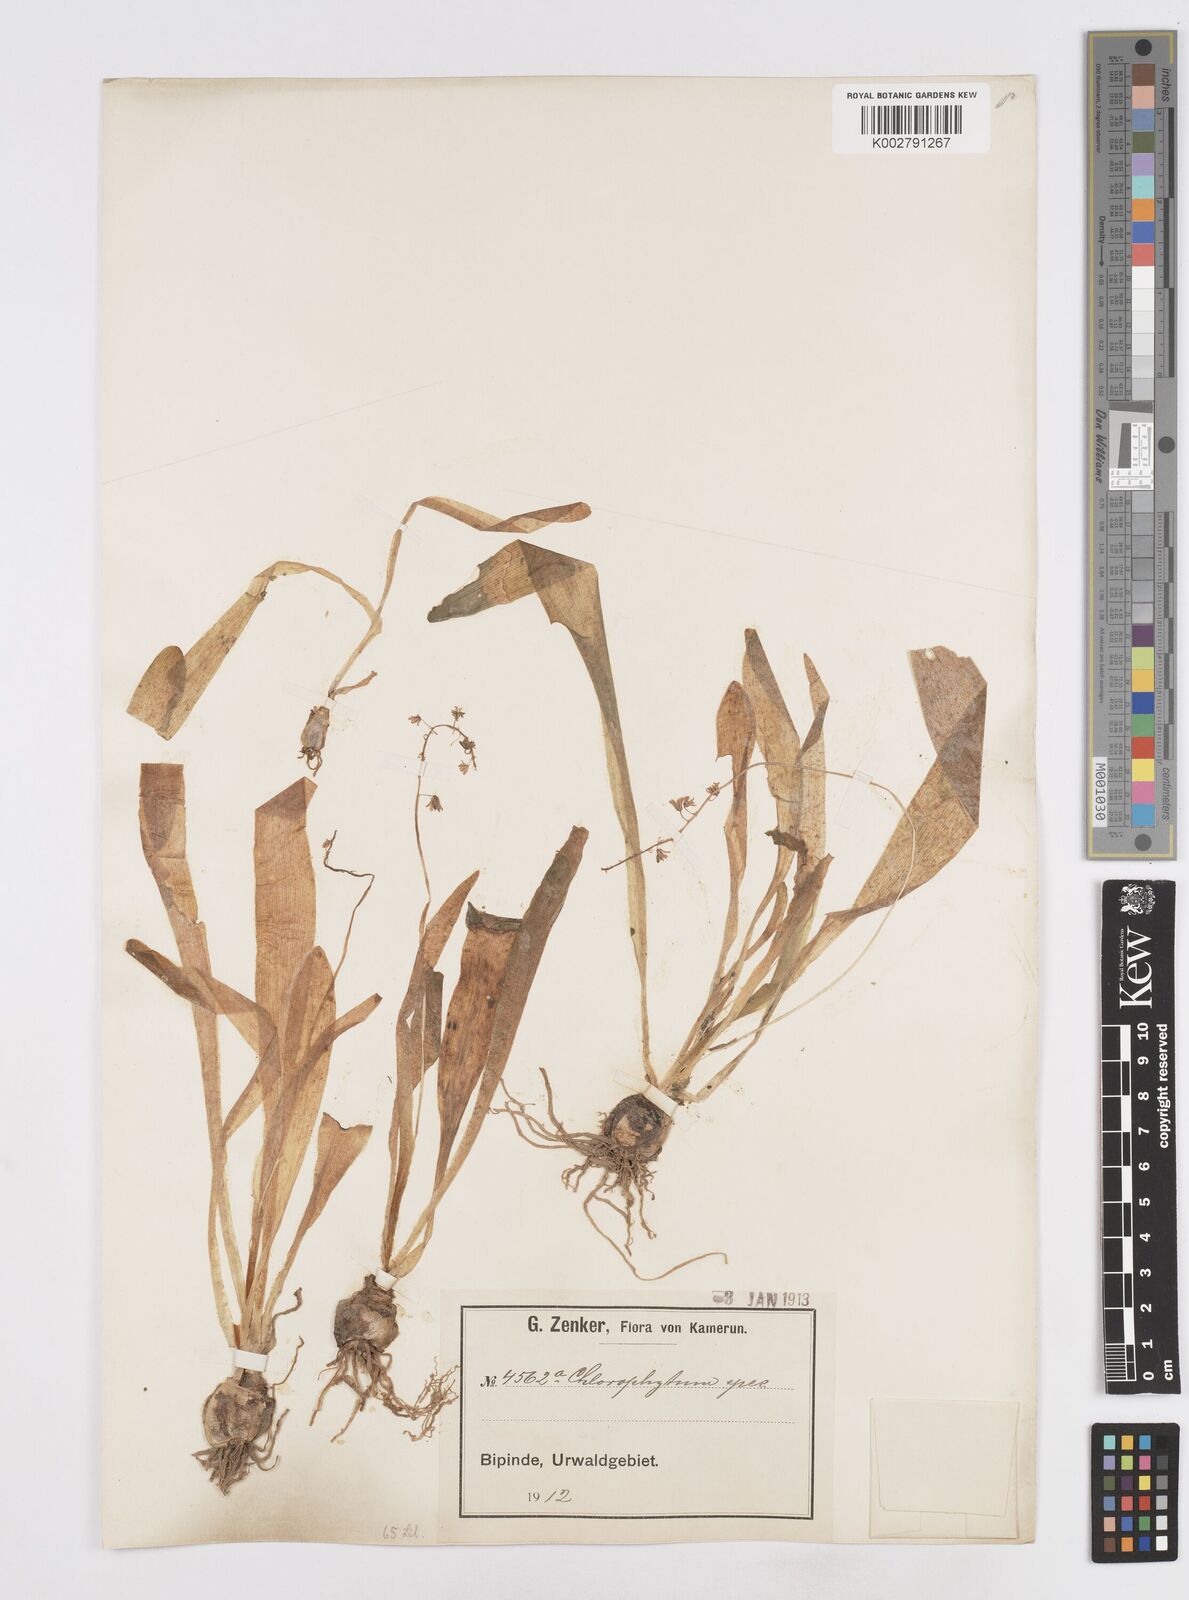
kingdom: Plantae
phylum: Tracheophyta
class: Liliopsida
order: Asparagales
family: Asparagaceae
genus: Ledebouria
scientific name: Ledebouria camerooniana
